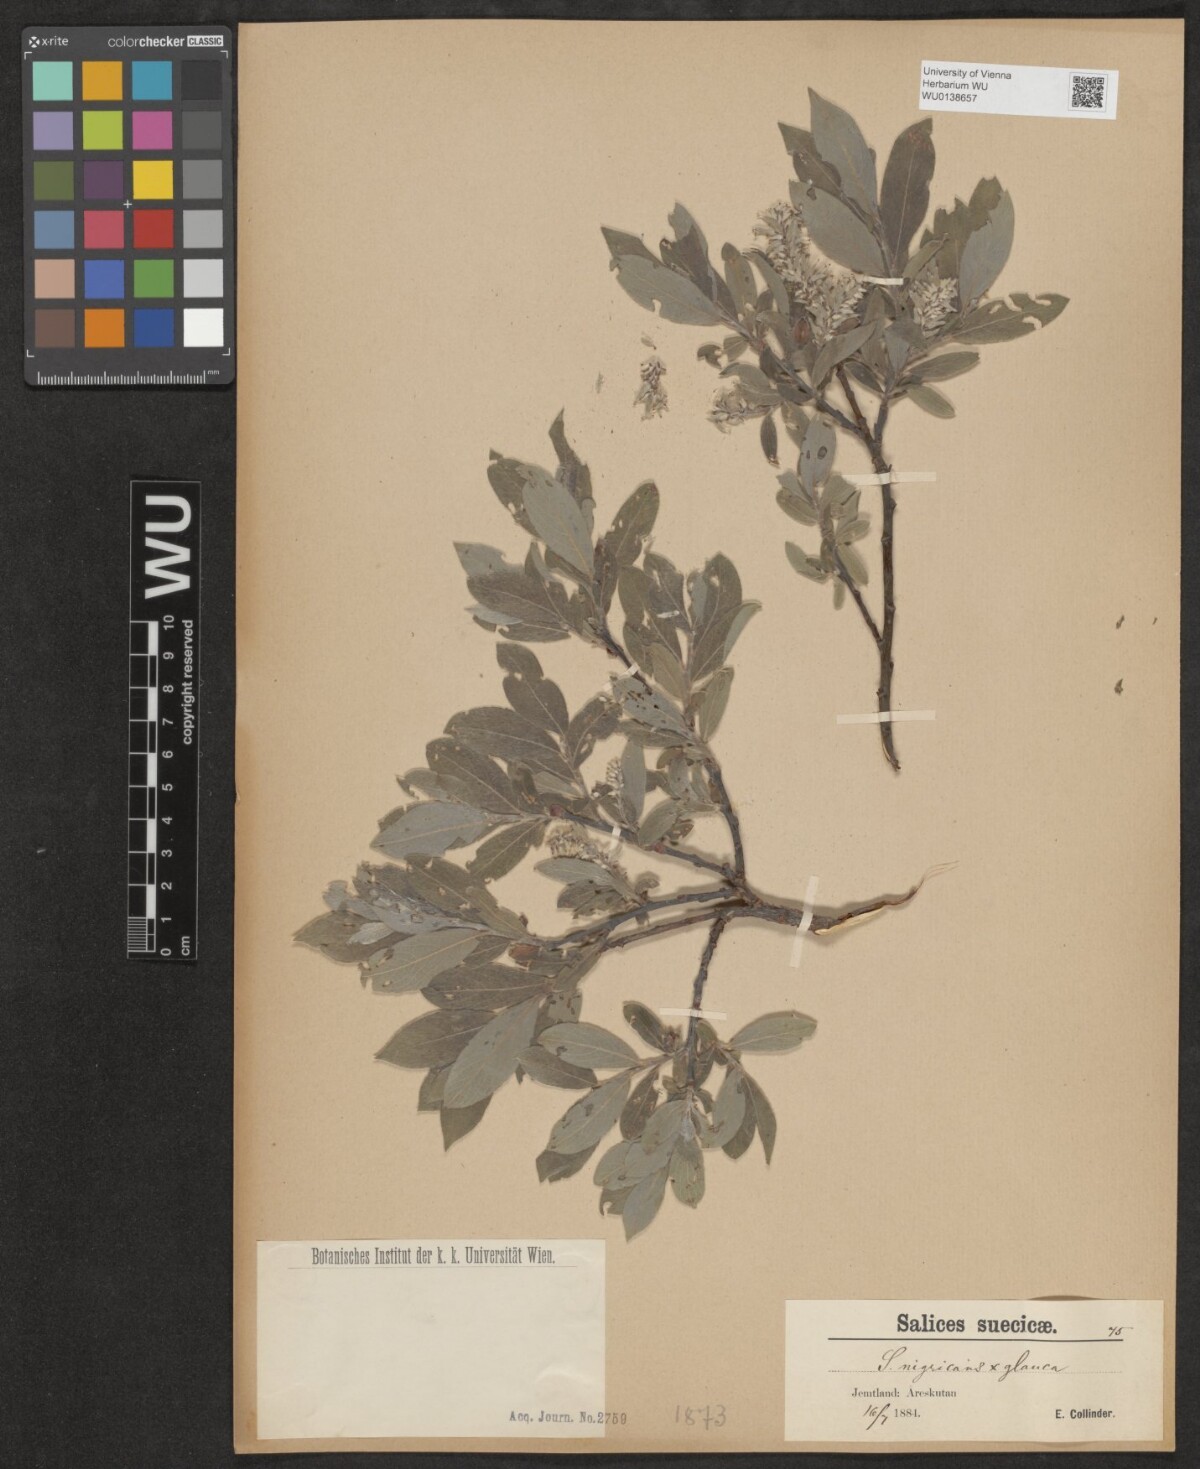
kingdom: Plantae
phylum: Tracheophyta
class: Magnoliopsida
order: Malpighiales
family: Salicaceae
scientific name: Salicaceae
